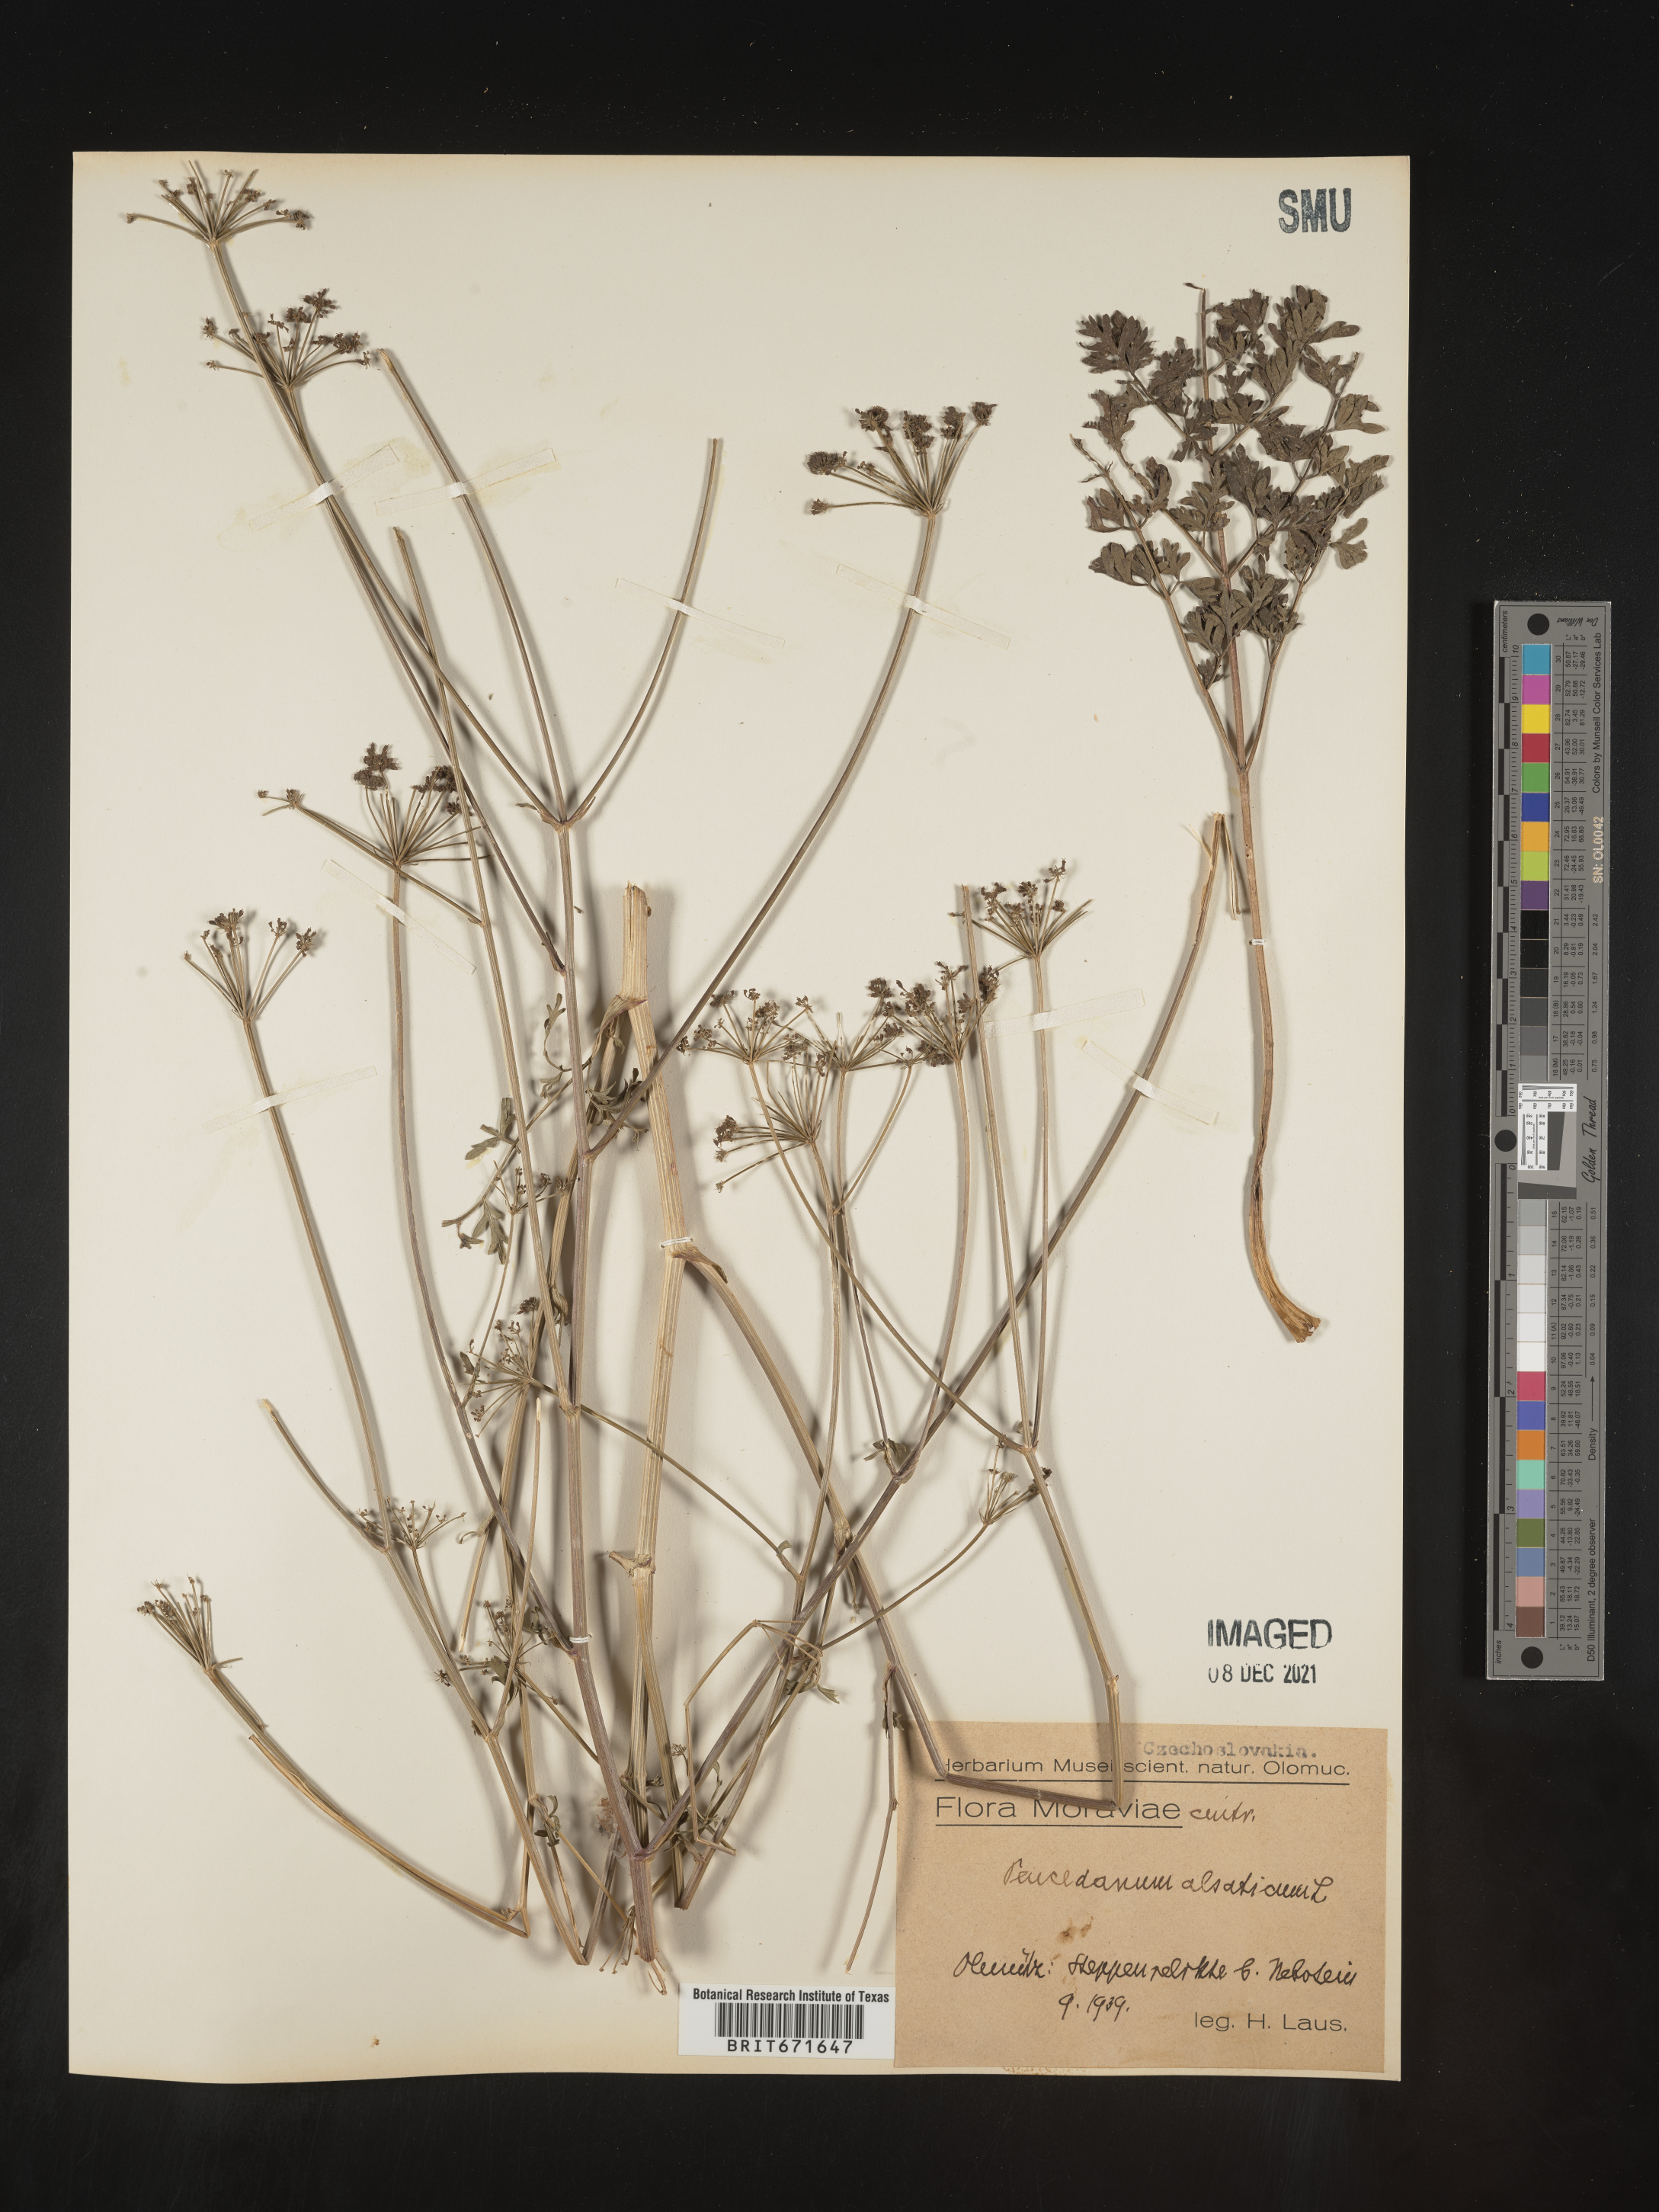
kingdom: Plantae
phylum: Tracheophyta
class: Magnoliopsida
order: Apiales
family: Apiaceae
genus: Peucedanum
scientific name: Peucedanum
